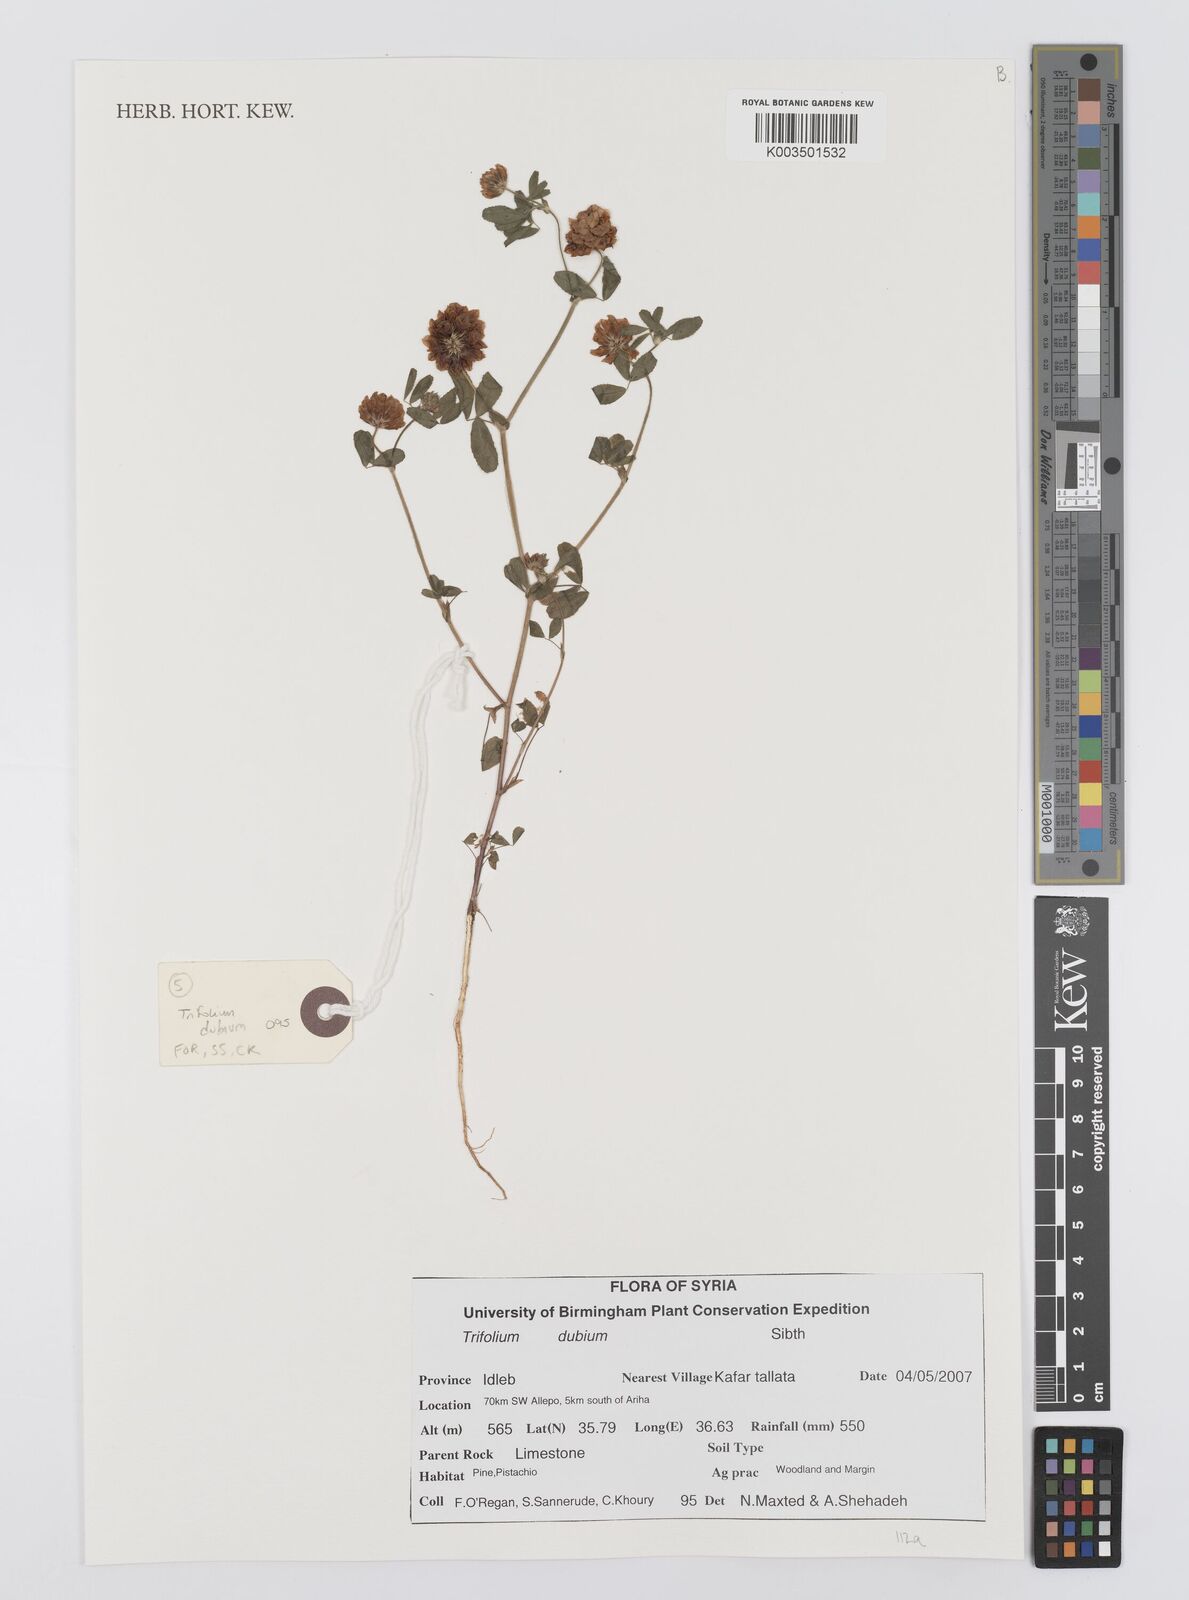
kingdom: Plantae
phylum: Tracheophyta
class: Magnoliopsida
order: Fabales
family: Fabaceae
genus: Trifolium
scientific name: Trifolium dubium
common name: Suckling clover
